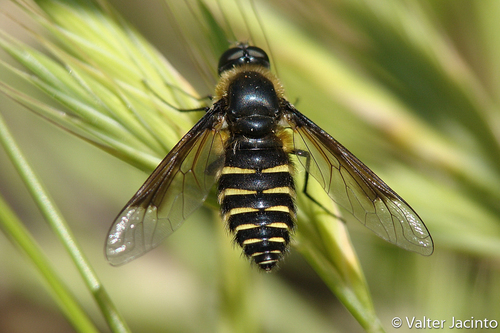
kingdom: Animalia
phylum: Arthropoda
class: Insecta
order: Diptera
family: Bombyliidae
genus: Lomatia
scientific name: Lomatia
